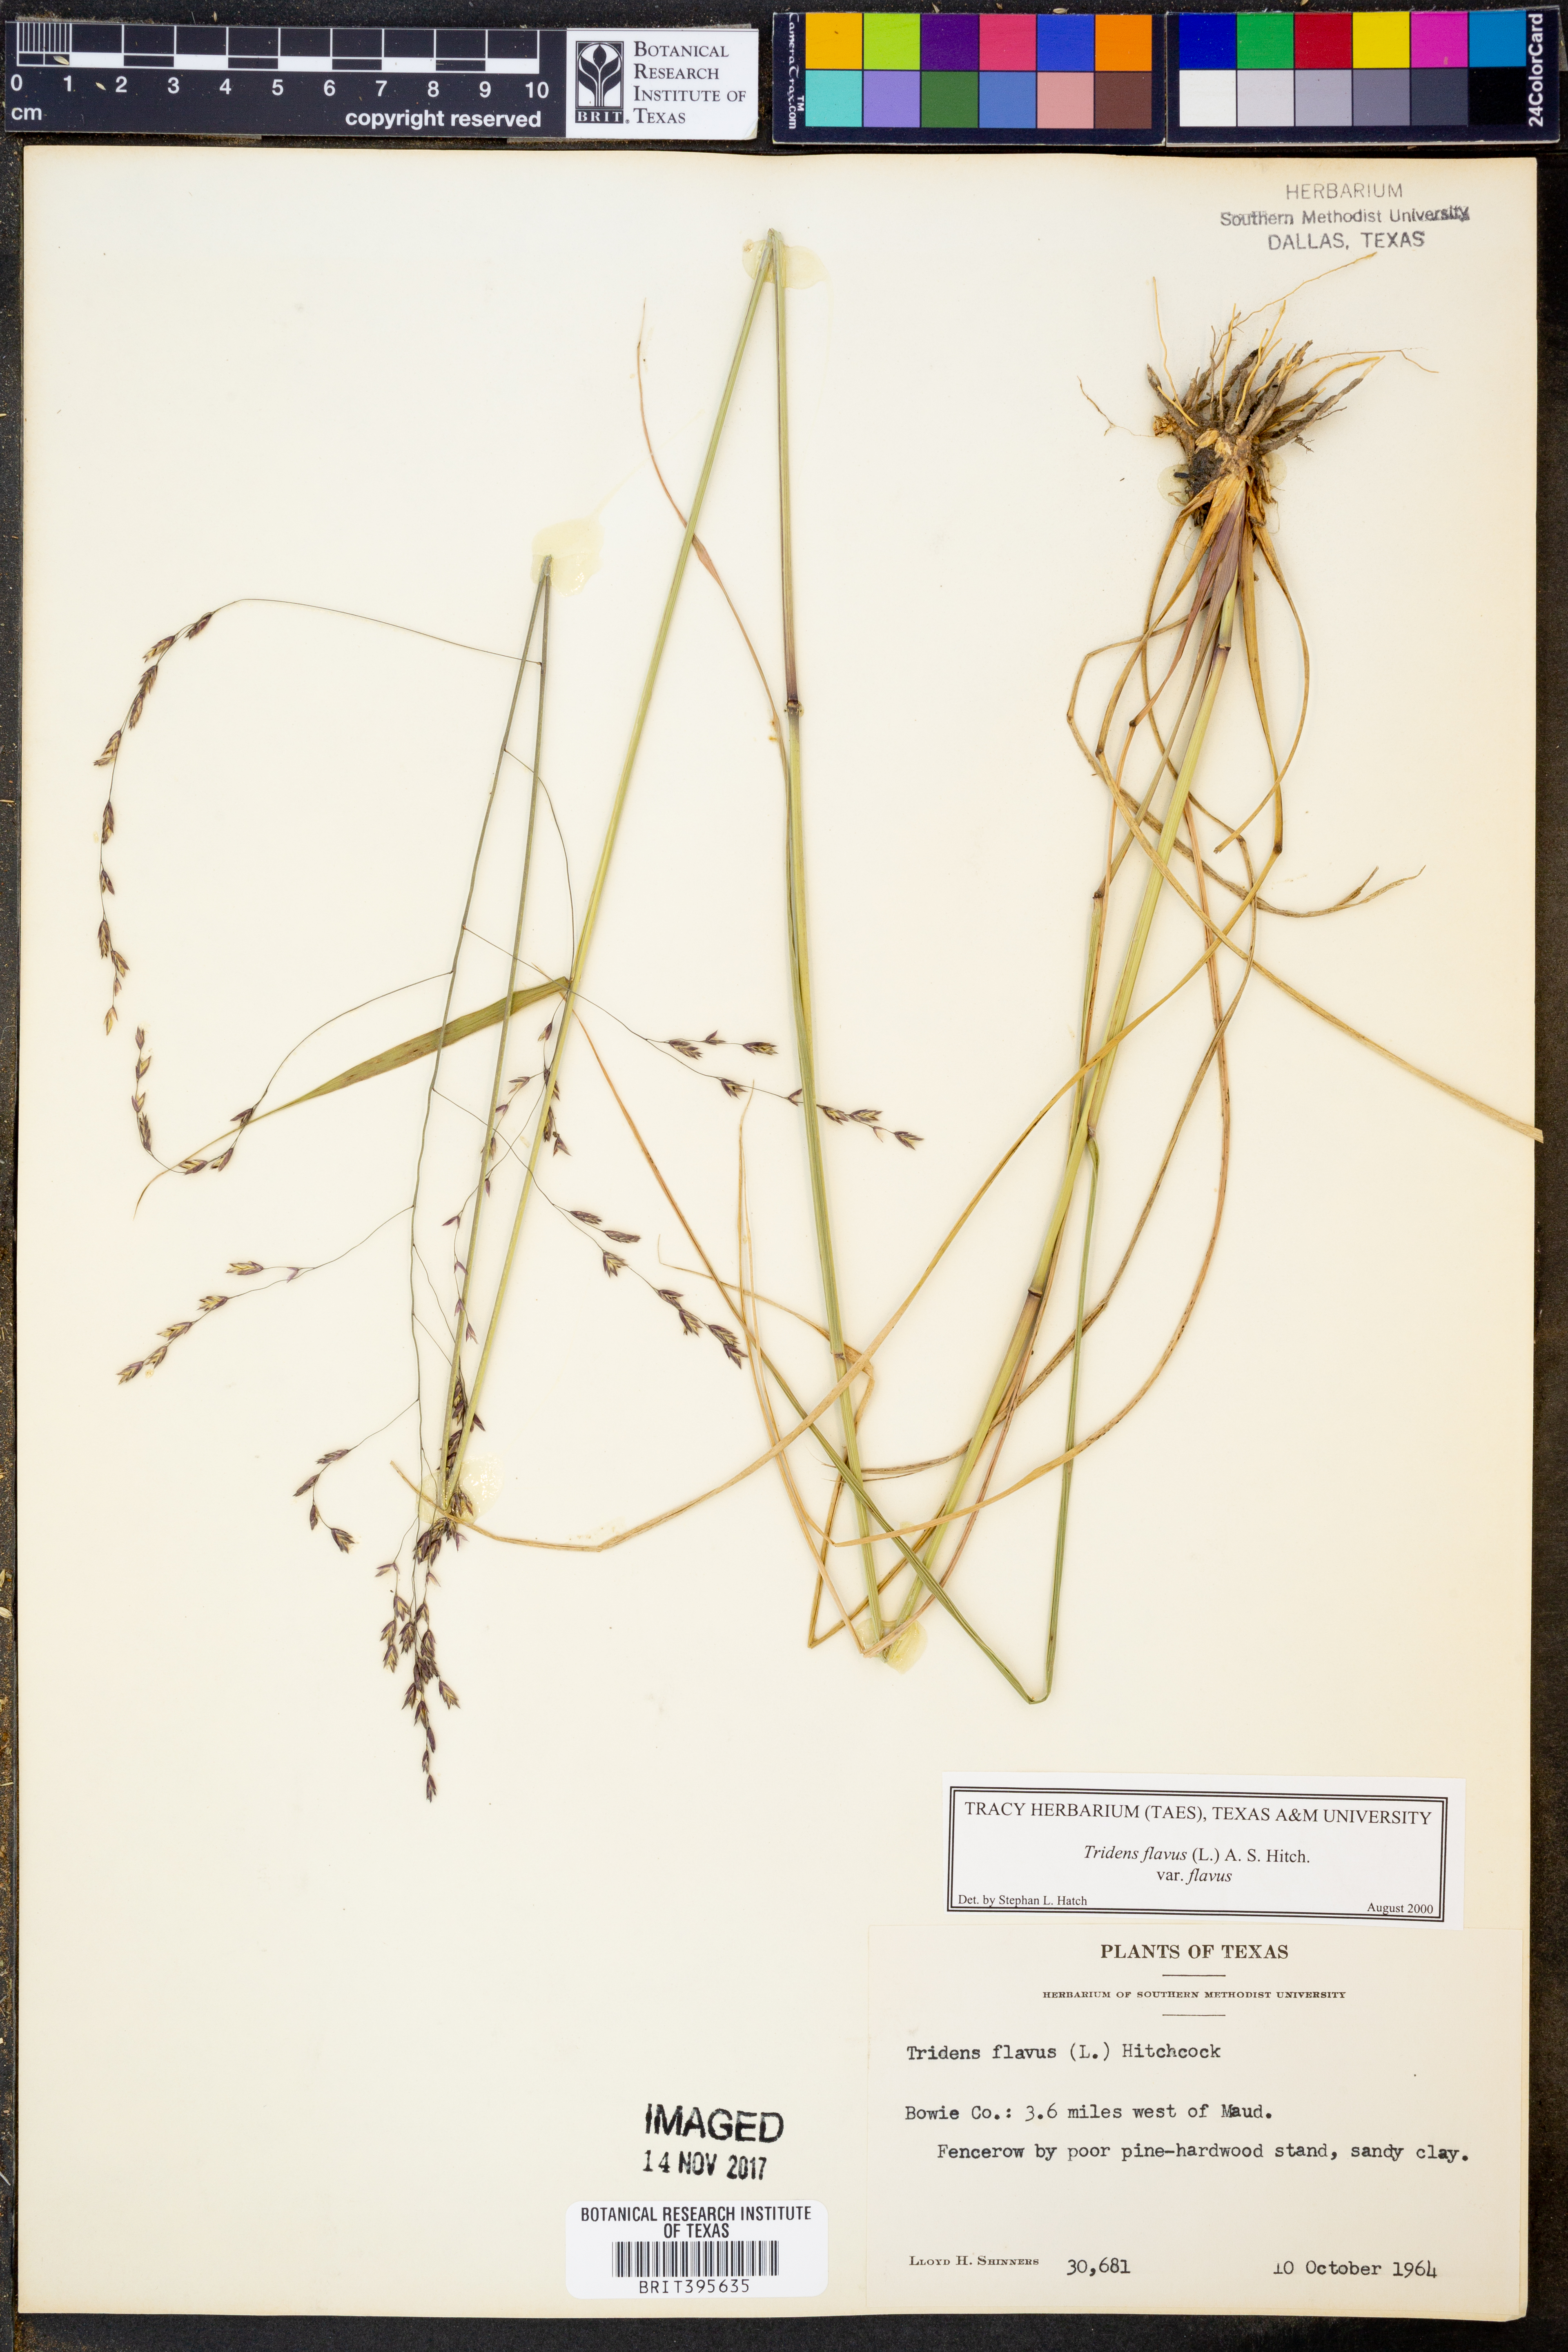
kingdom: Plantae
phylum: Tracheophyta
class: Liliopsida
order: Poales
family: Poaceae
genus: Tridens
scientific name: Tridens flavus
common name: Purpletop
